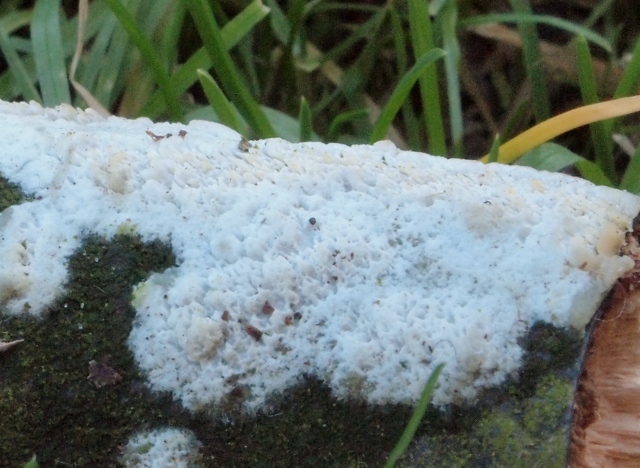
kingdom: Fungi
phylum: Basidiomycota
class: Agaricomycetes
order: Hymenochaetales
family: Schizoporaceae
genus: Schizopora
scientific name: Schizopora paradoxa
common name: hvid tandsvamp
